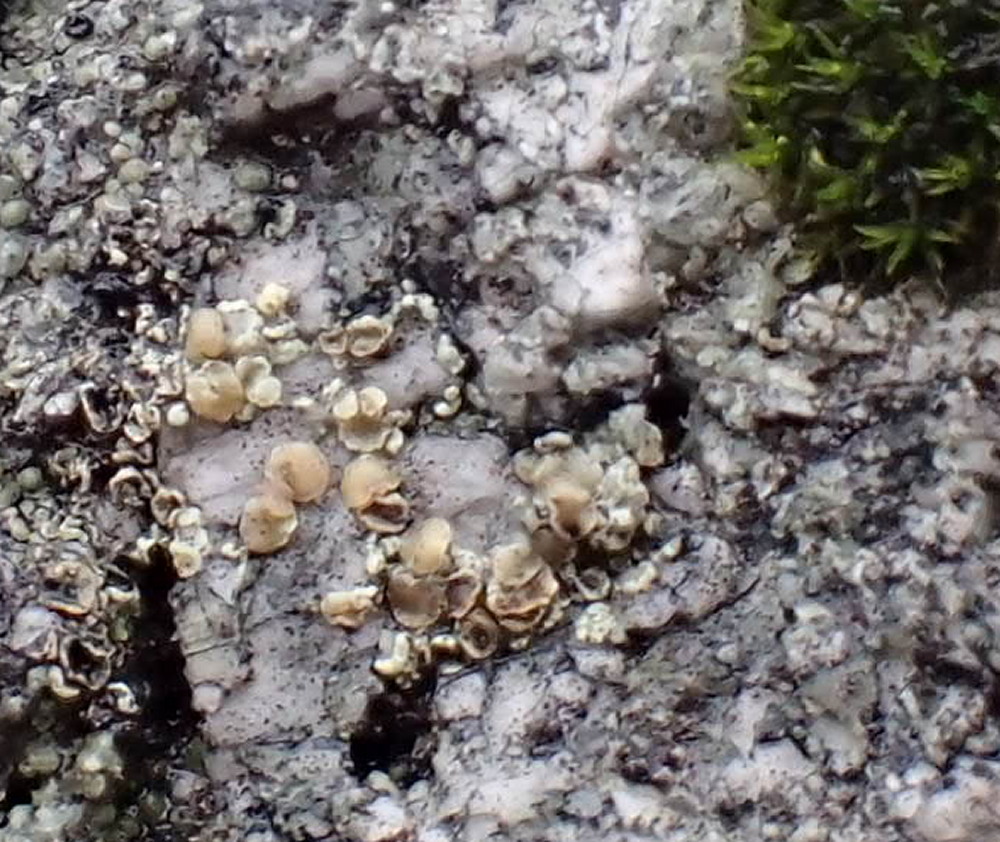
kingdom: Fungi
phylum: Ascomycota
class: Lecanoromycetes
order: Lecanorales
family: Lecanoraceae
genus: Lecanora
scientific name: Lecanora polytropa
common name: bleggrøn kantskivelav
